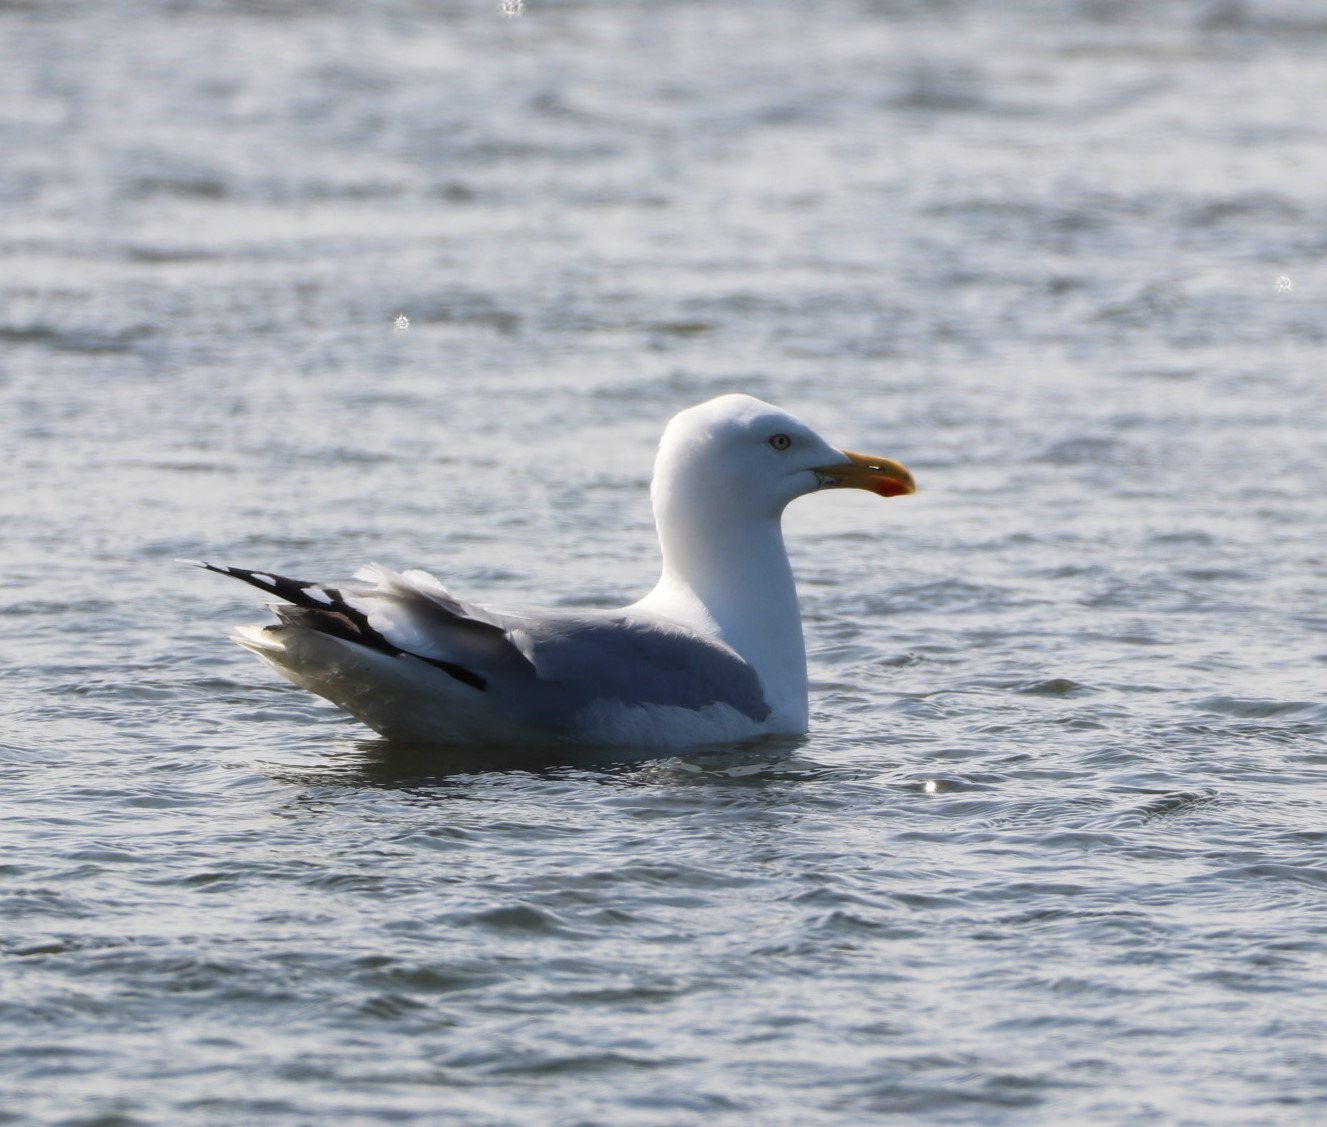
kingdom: Animalia
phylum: Chordata
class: Aves
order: Charadriiformes
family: Laridae
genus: Larus
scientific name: Larus argentatus
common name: Sølvmåge
